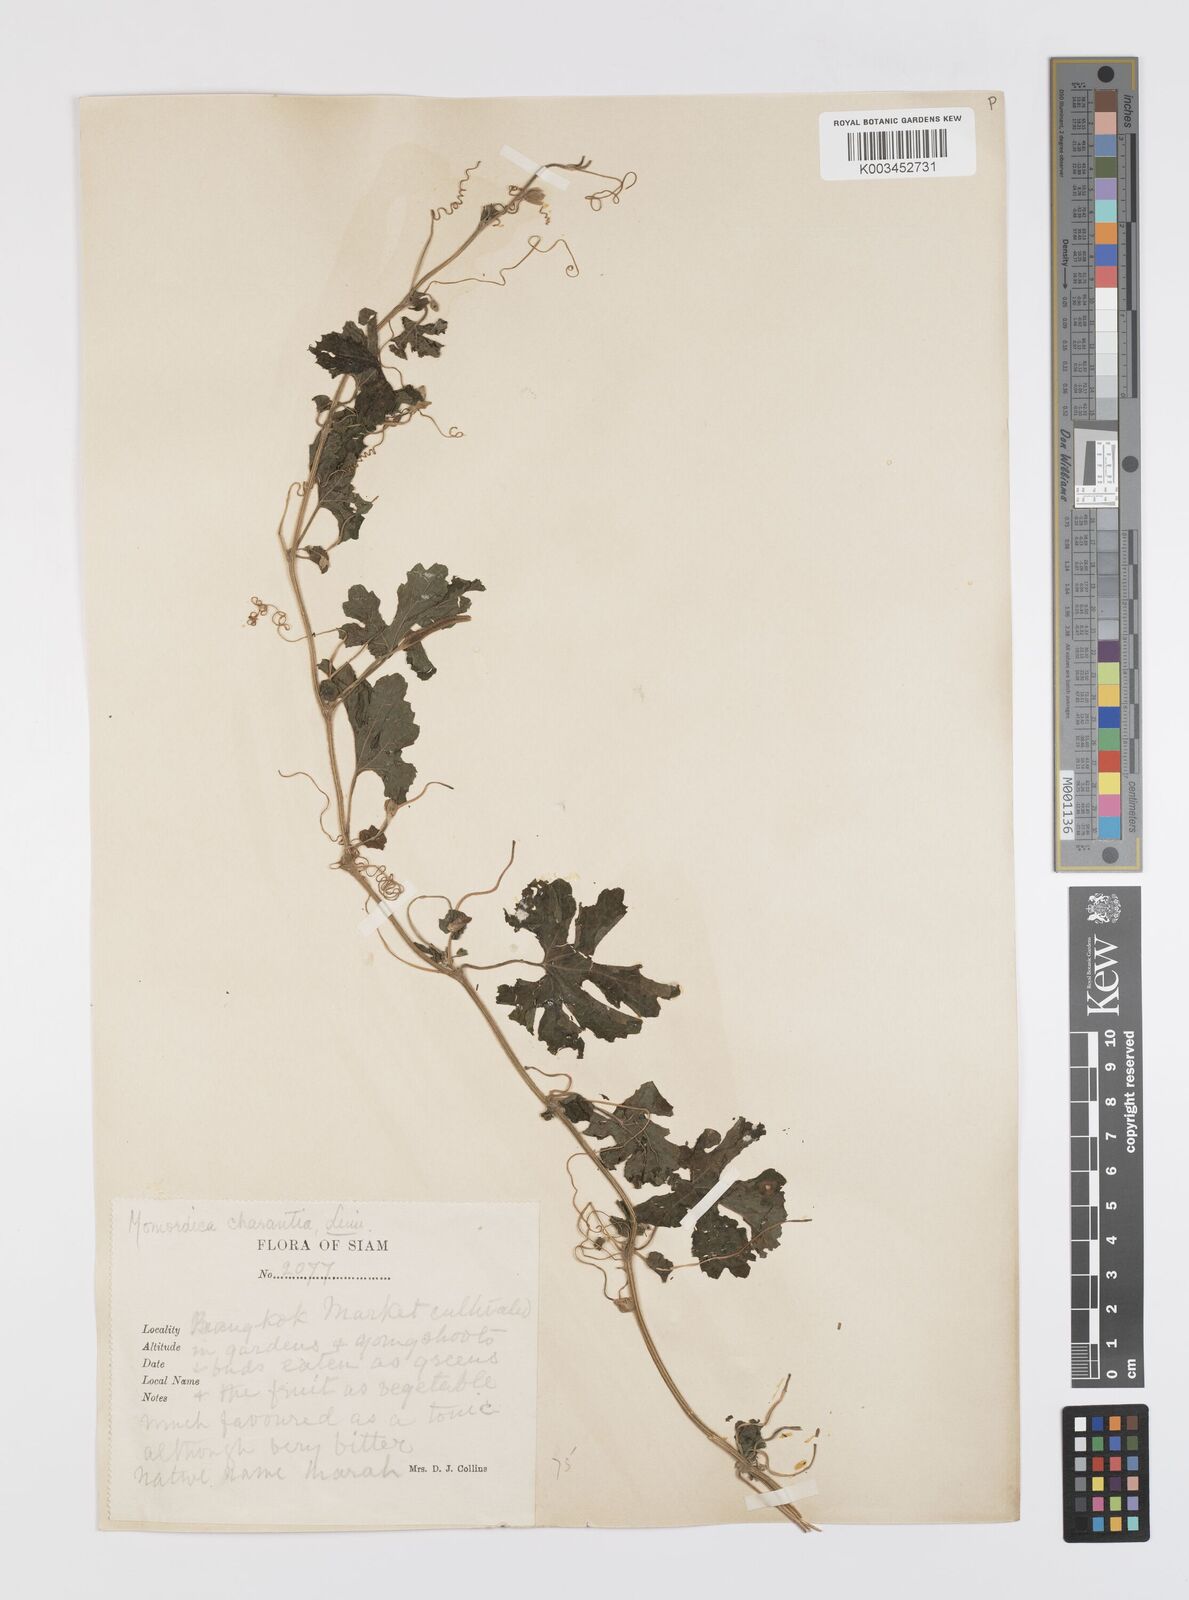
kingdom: Plantae
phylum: Tracheophyta
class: Magnoliopsida
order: Cucurbitales
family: Cucurbitaceae
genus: Momordica
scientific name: Momordica charantia
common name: Balsampear
